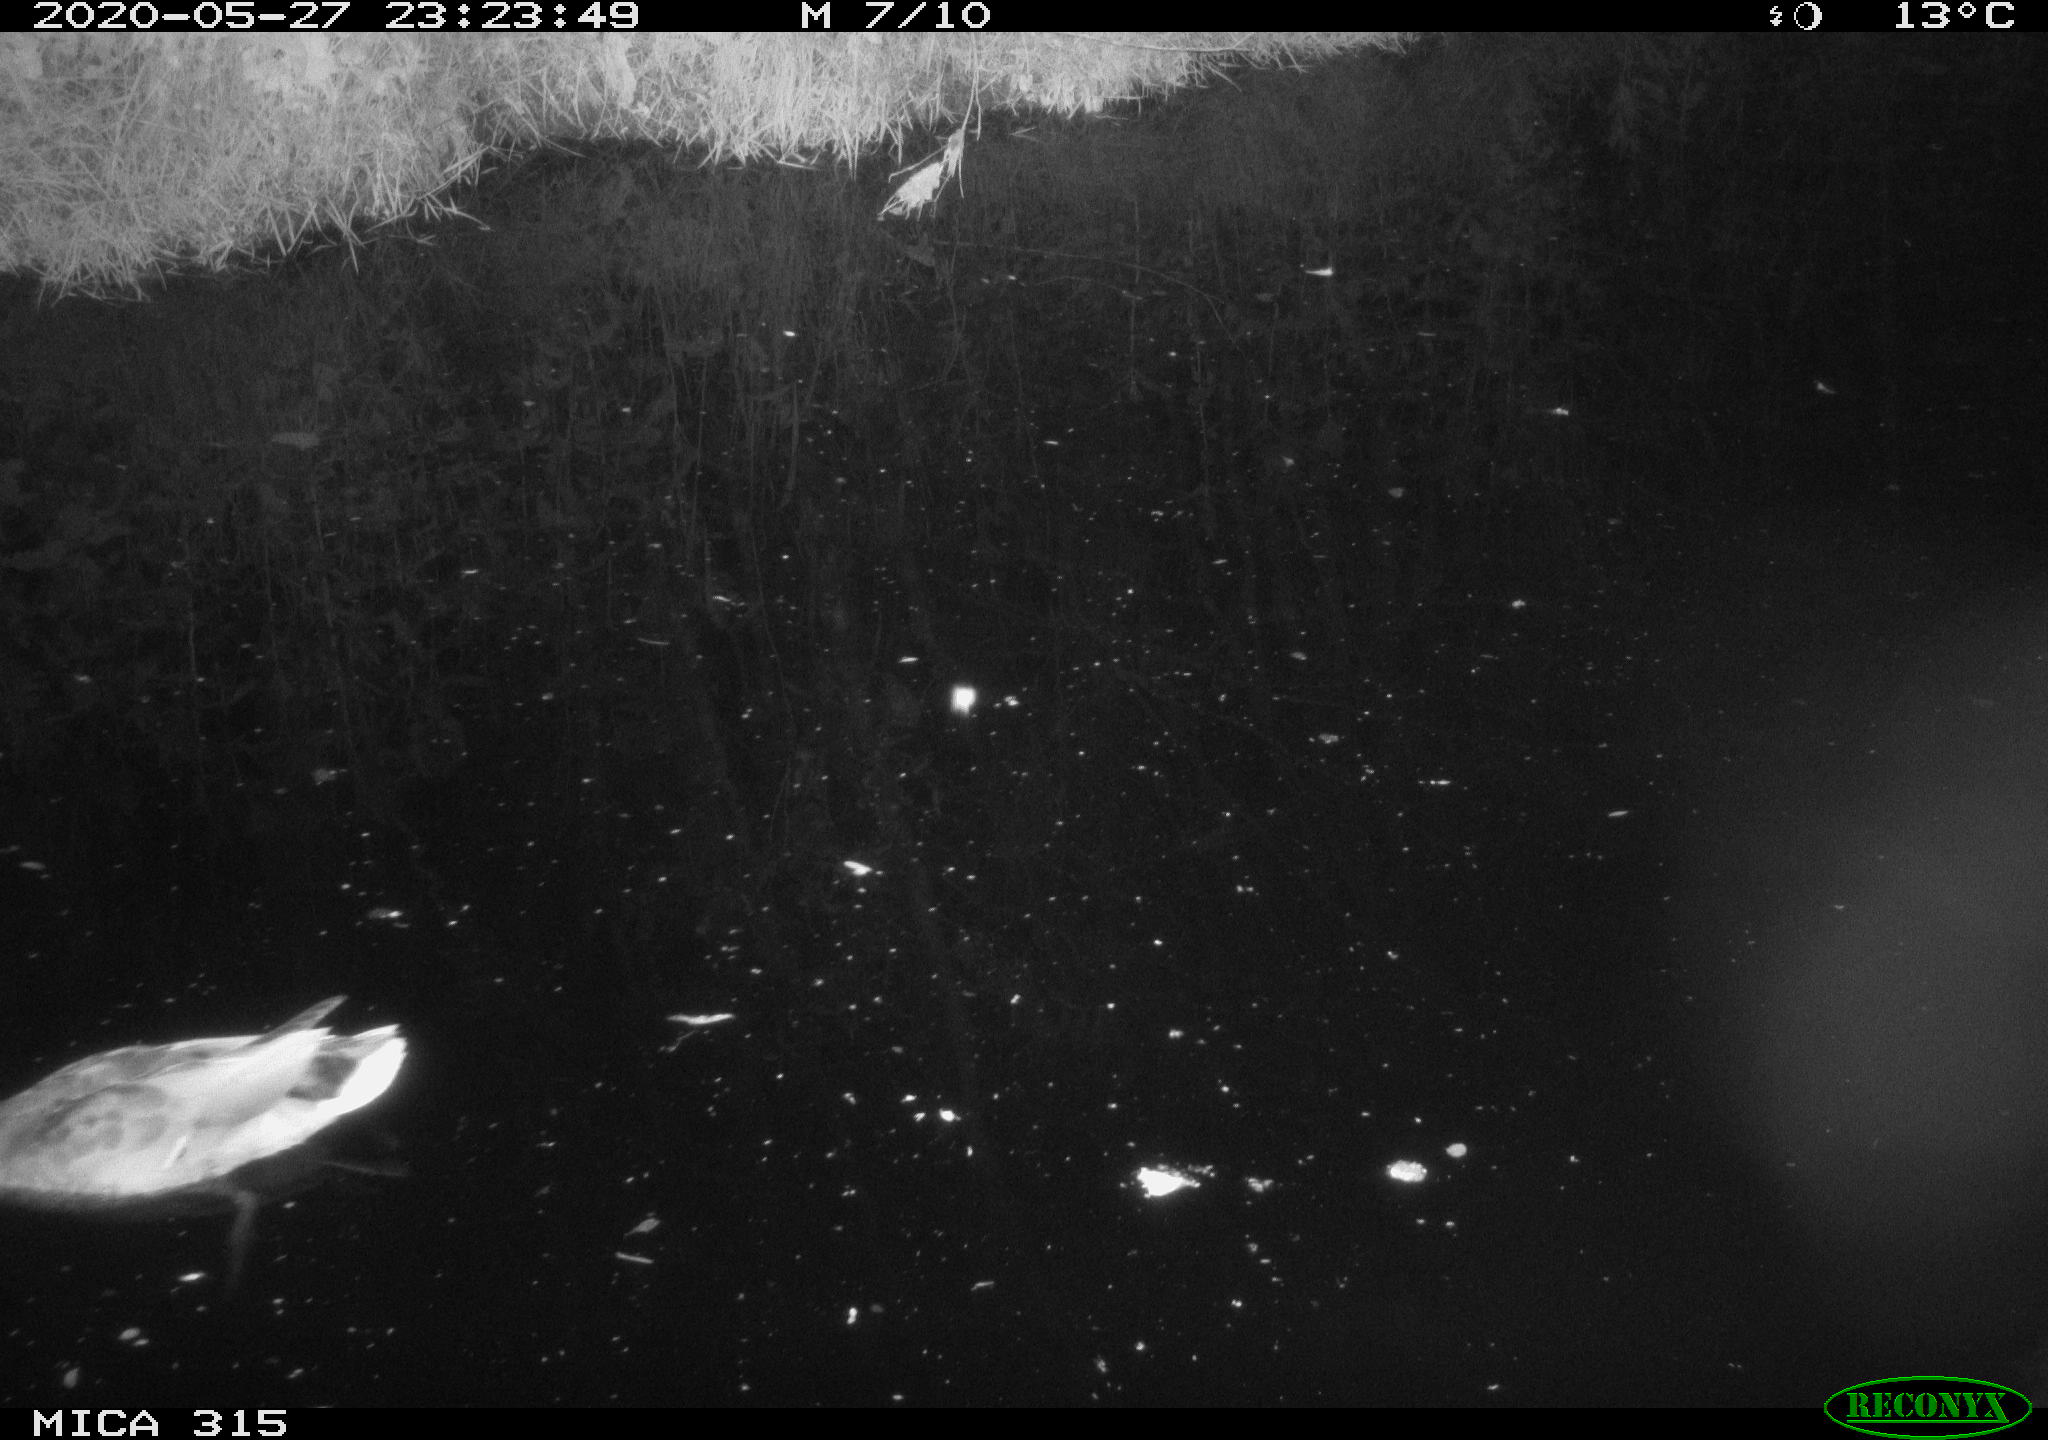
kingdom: Animalia
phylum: Chordata
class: Aves
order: Anseriformes
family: Anatidae
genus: Anas
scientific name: Anas platyrhynchos
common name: Mallard
